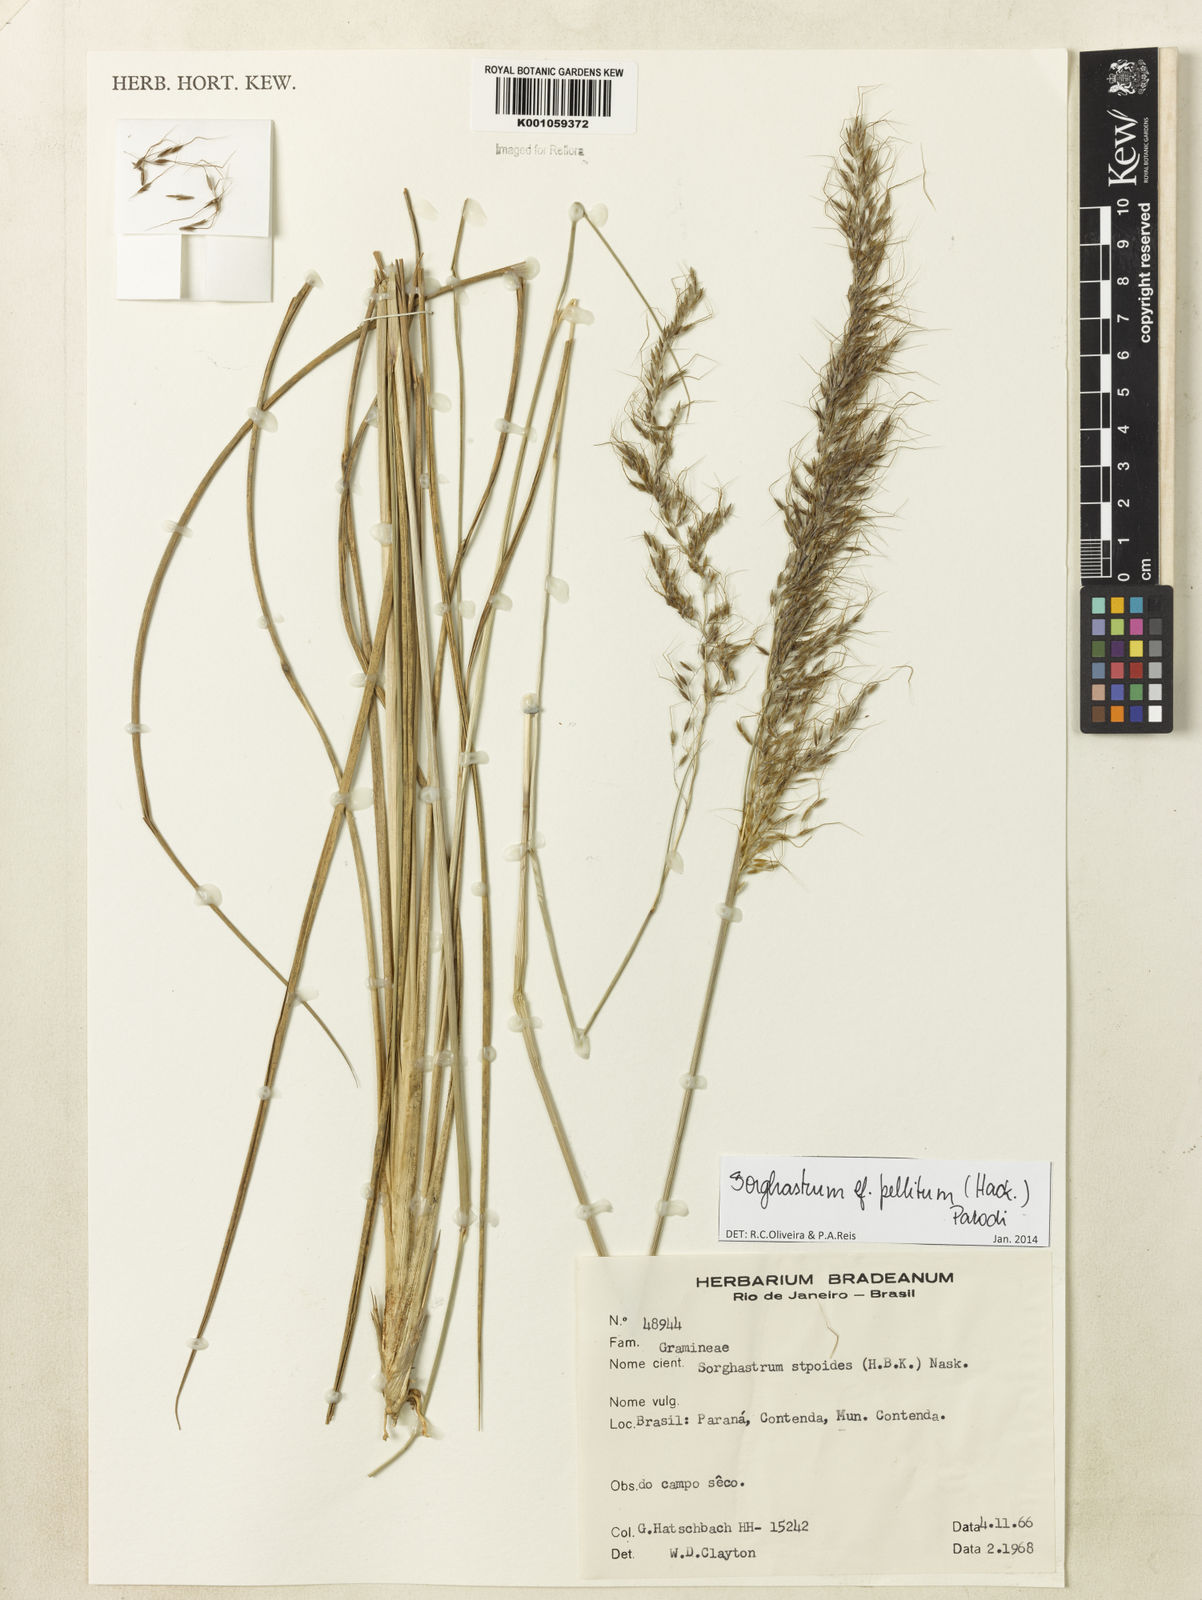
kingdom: Plantae
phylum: Tracheophyta
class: Liliopsida
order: Poales
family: Poaceae
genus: Sorghastrum
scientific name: Sorghastrum pellitum
